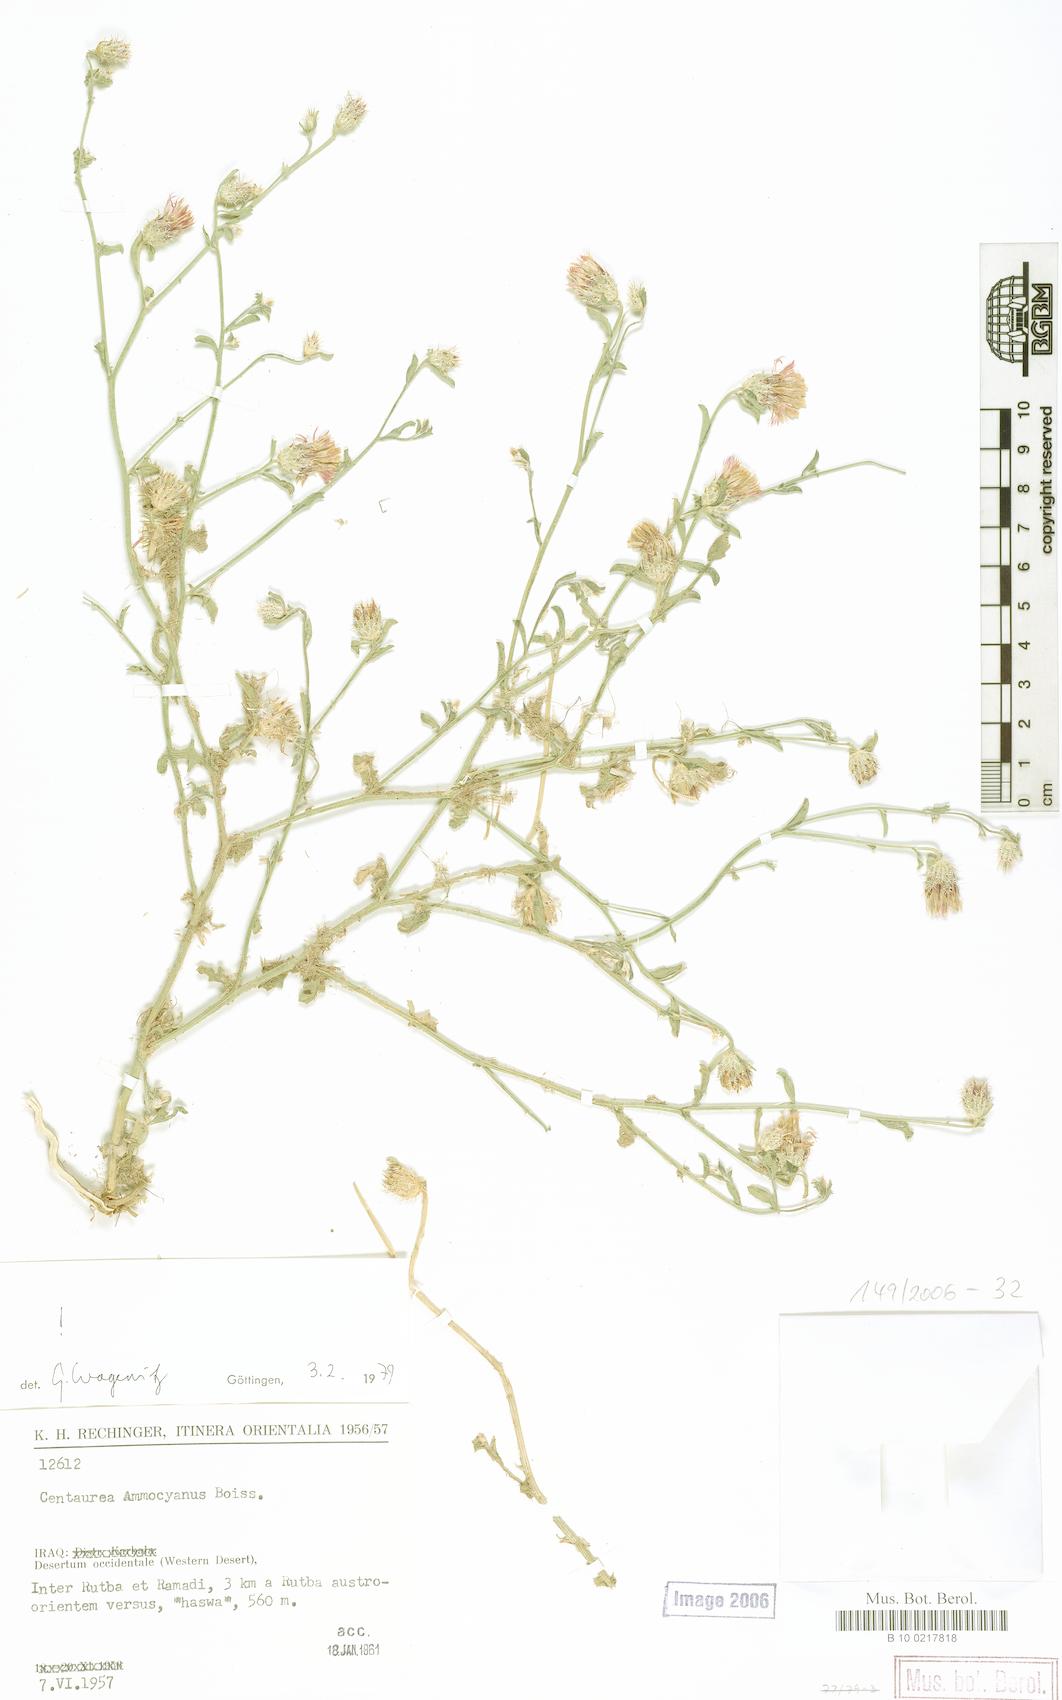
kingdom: Plantae
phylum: Tracheophyta
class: Magnoliopsida
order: Asterales
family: Asteraceae
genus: Centaurea
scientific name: Centaurea ammocyanus
